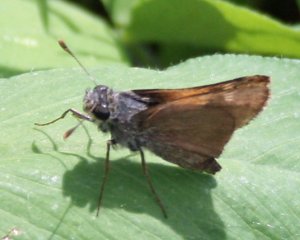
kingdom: Animalia
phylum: Arthropoda
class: Insecta
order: Lepidoptera
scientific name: Lepidoptera
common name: Butterflies
